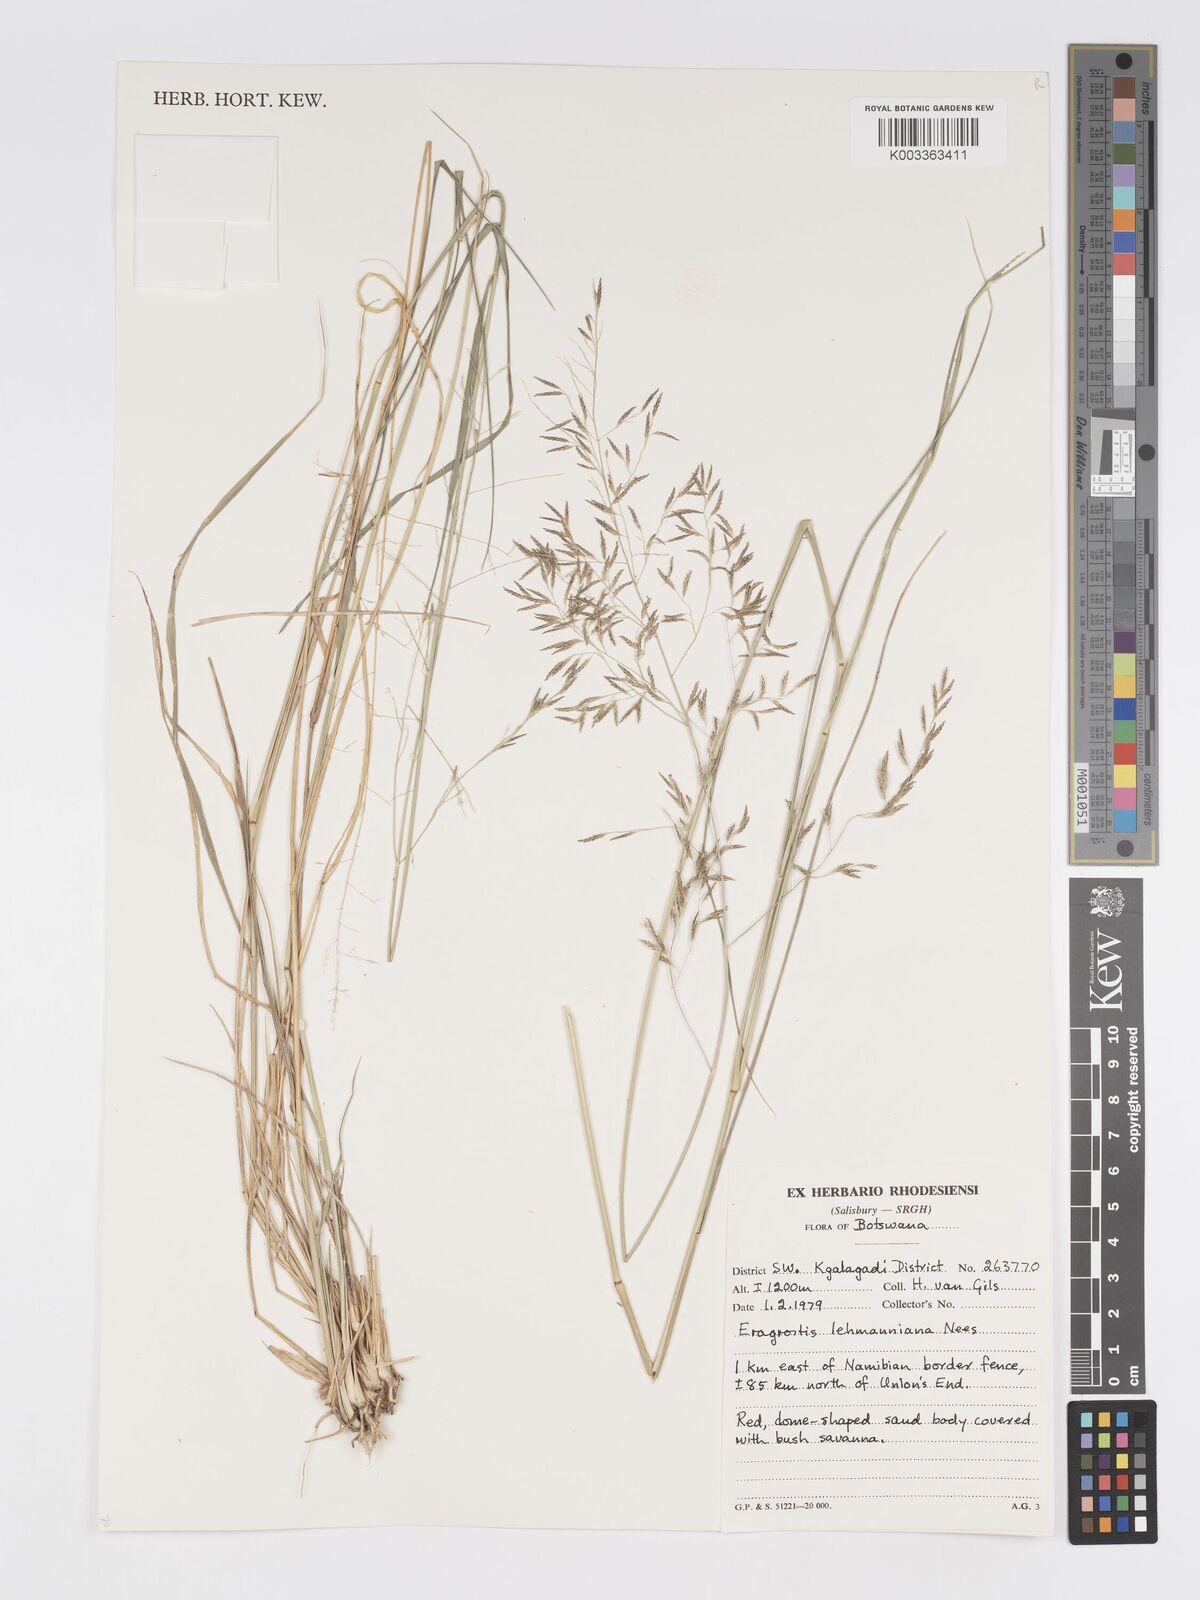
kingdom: Plantae
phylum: Tracheophyta
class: Liliopsida
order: Poales
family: Poaceae
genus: Eragrostis
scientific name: Eragrostis lehmanniana
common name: Lehmann lovegrass
